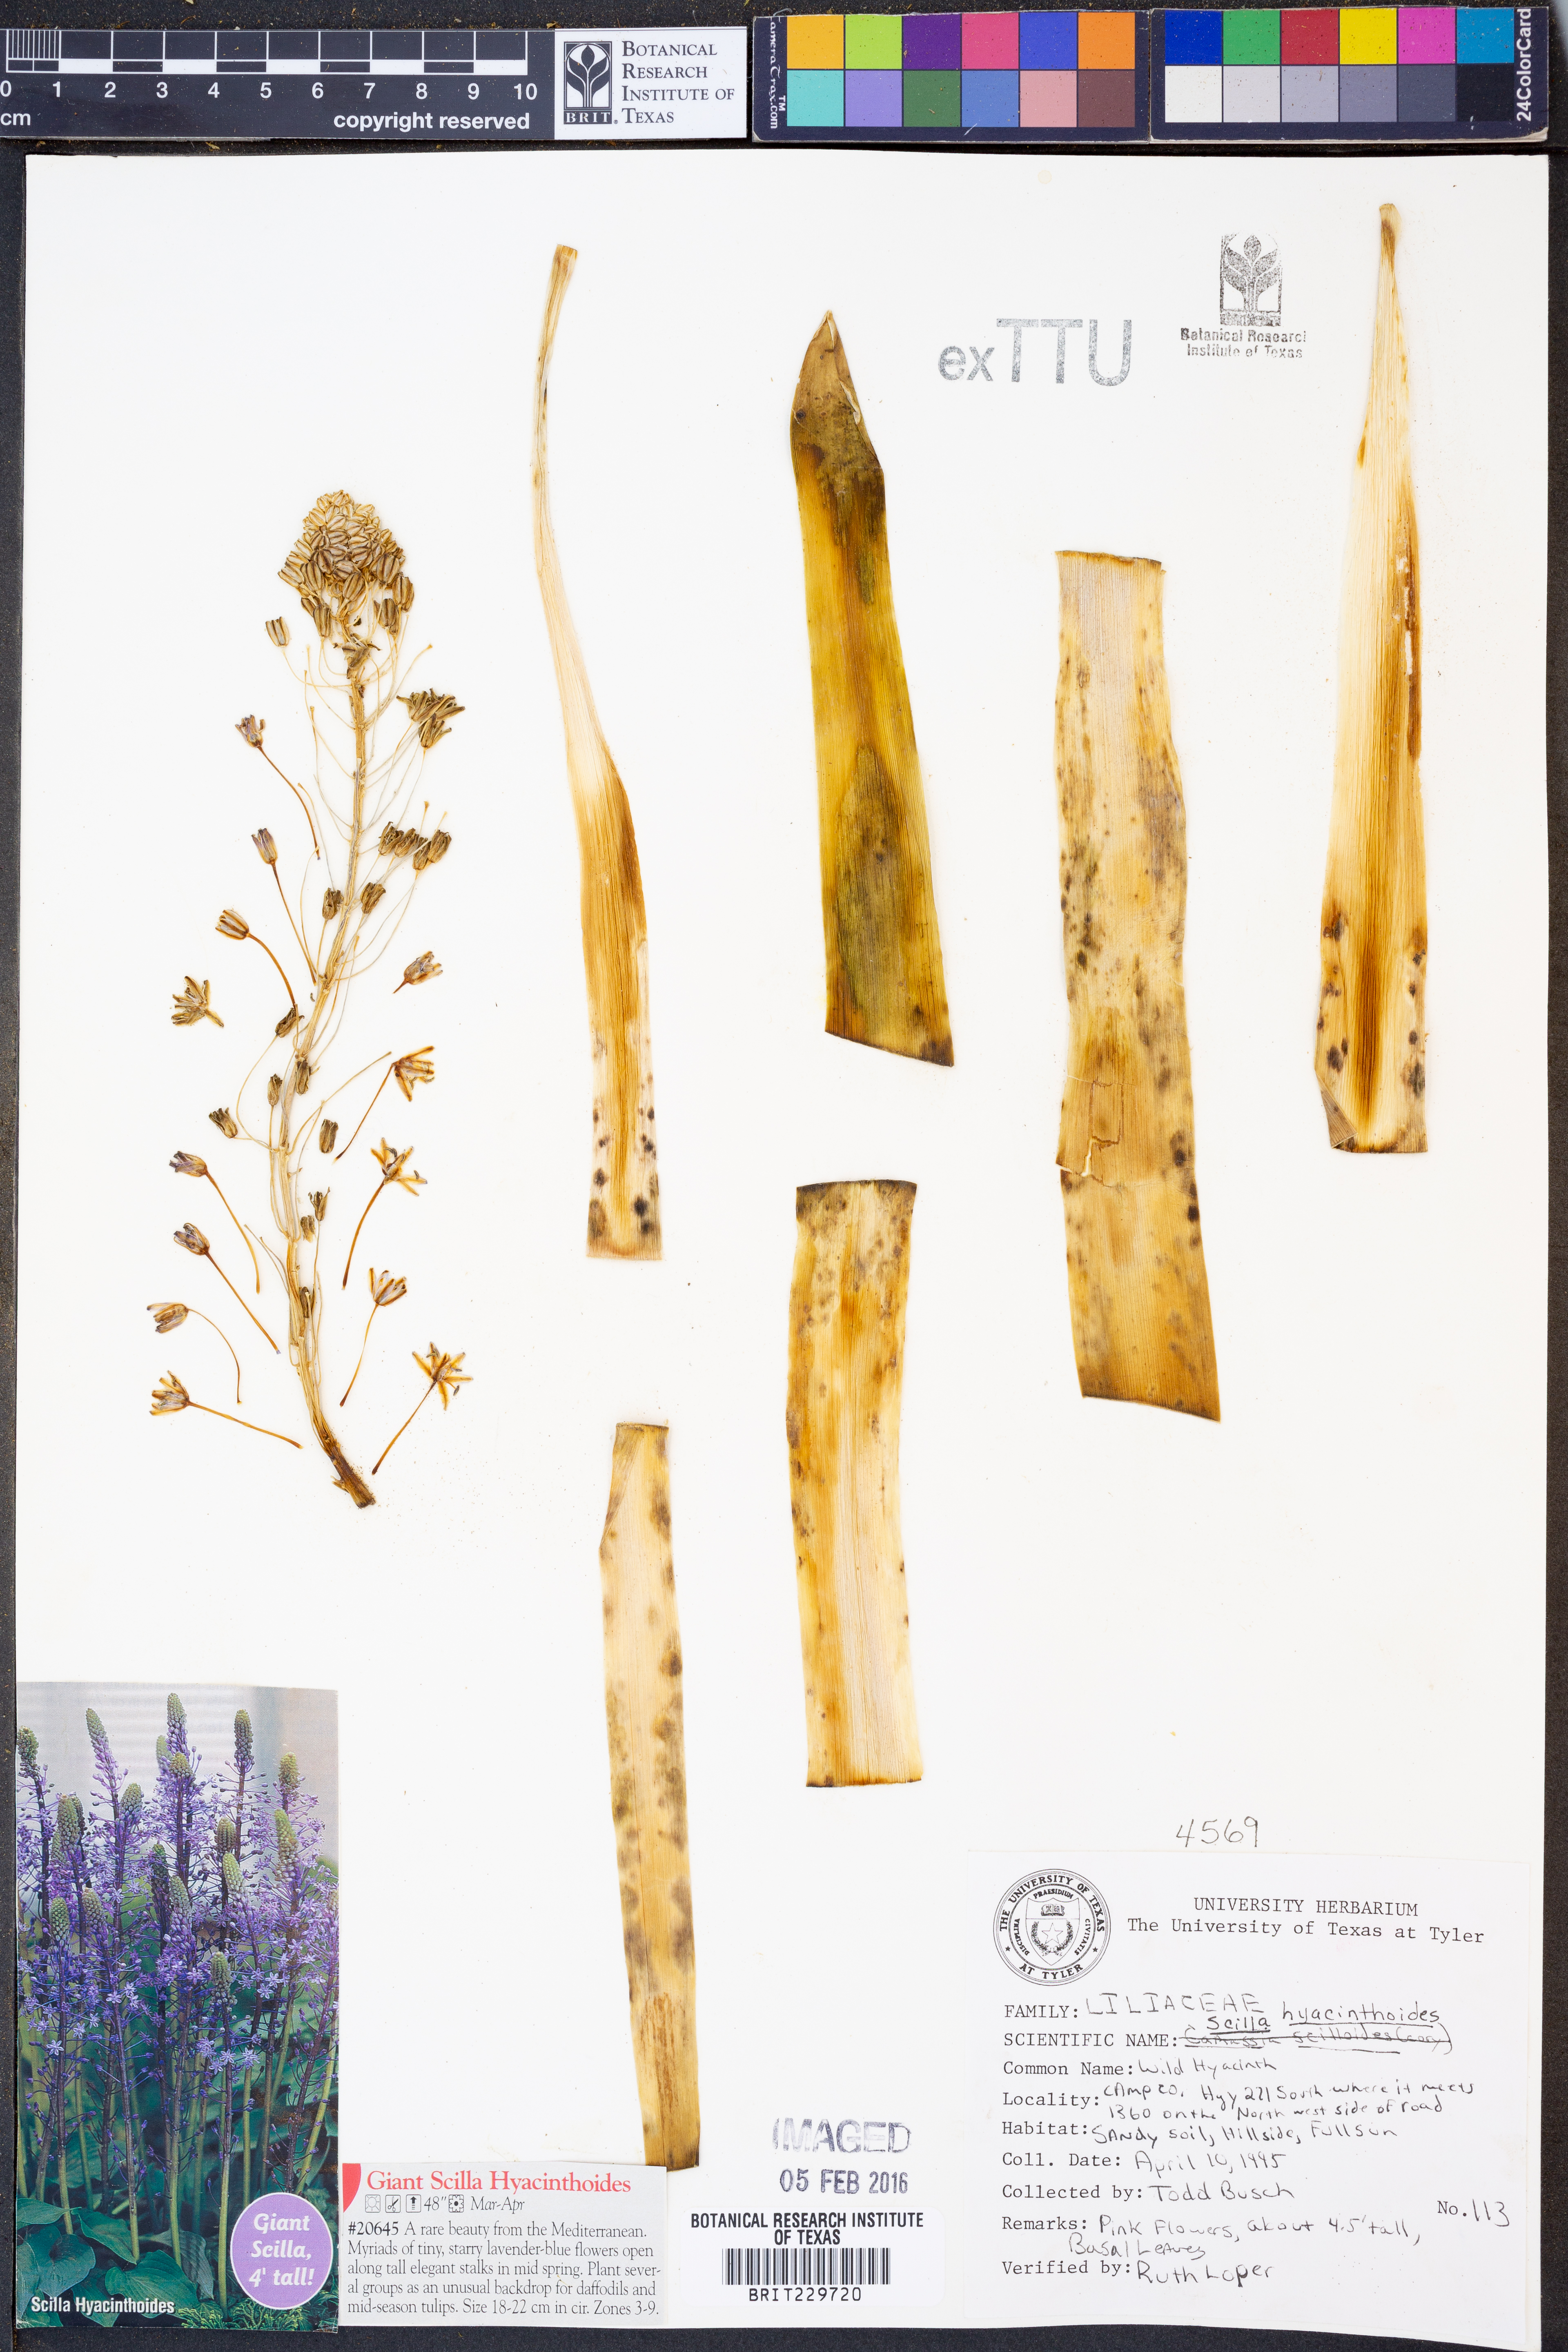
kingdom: Plantae
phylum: Tracheophyta
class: Liliopsida
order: Asparagales
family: Asparagaceae
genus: Scilla
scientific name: Scilla hyacinthoides
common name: Scilla
